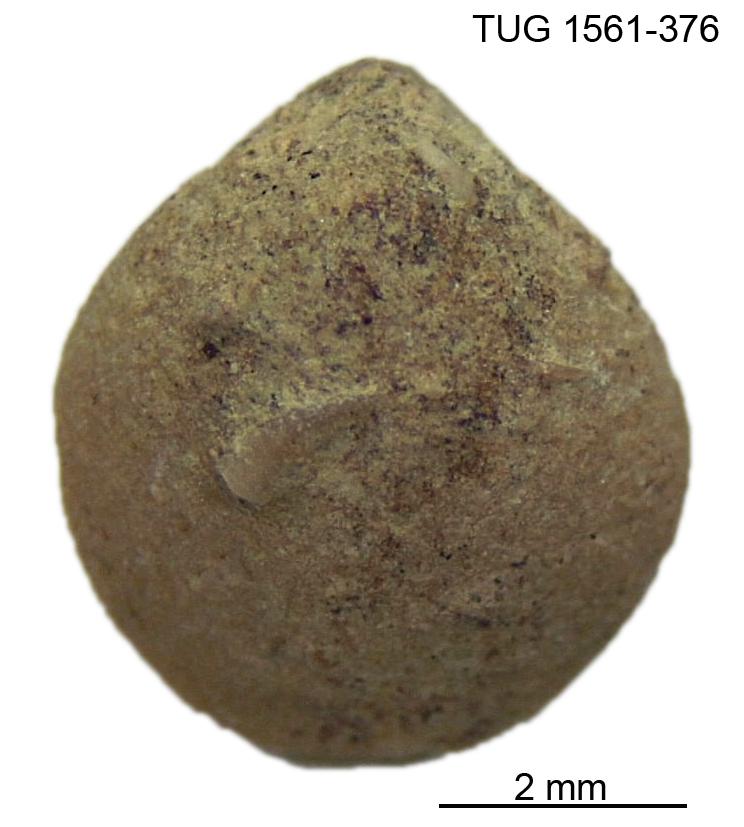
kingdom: Animalia
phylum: Brachiopoda
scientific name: Brachiopoda
